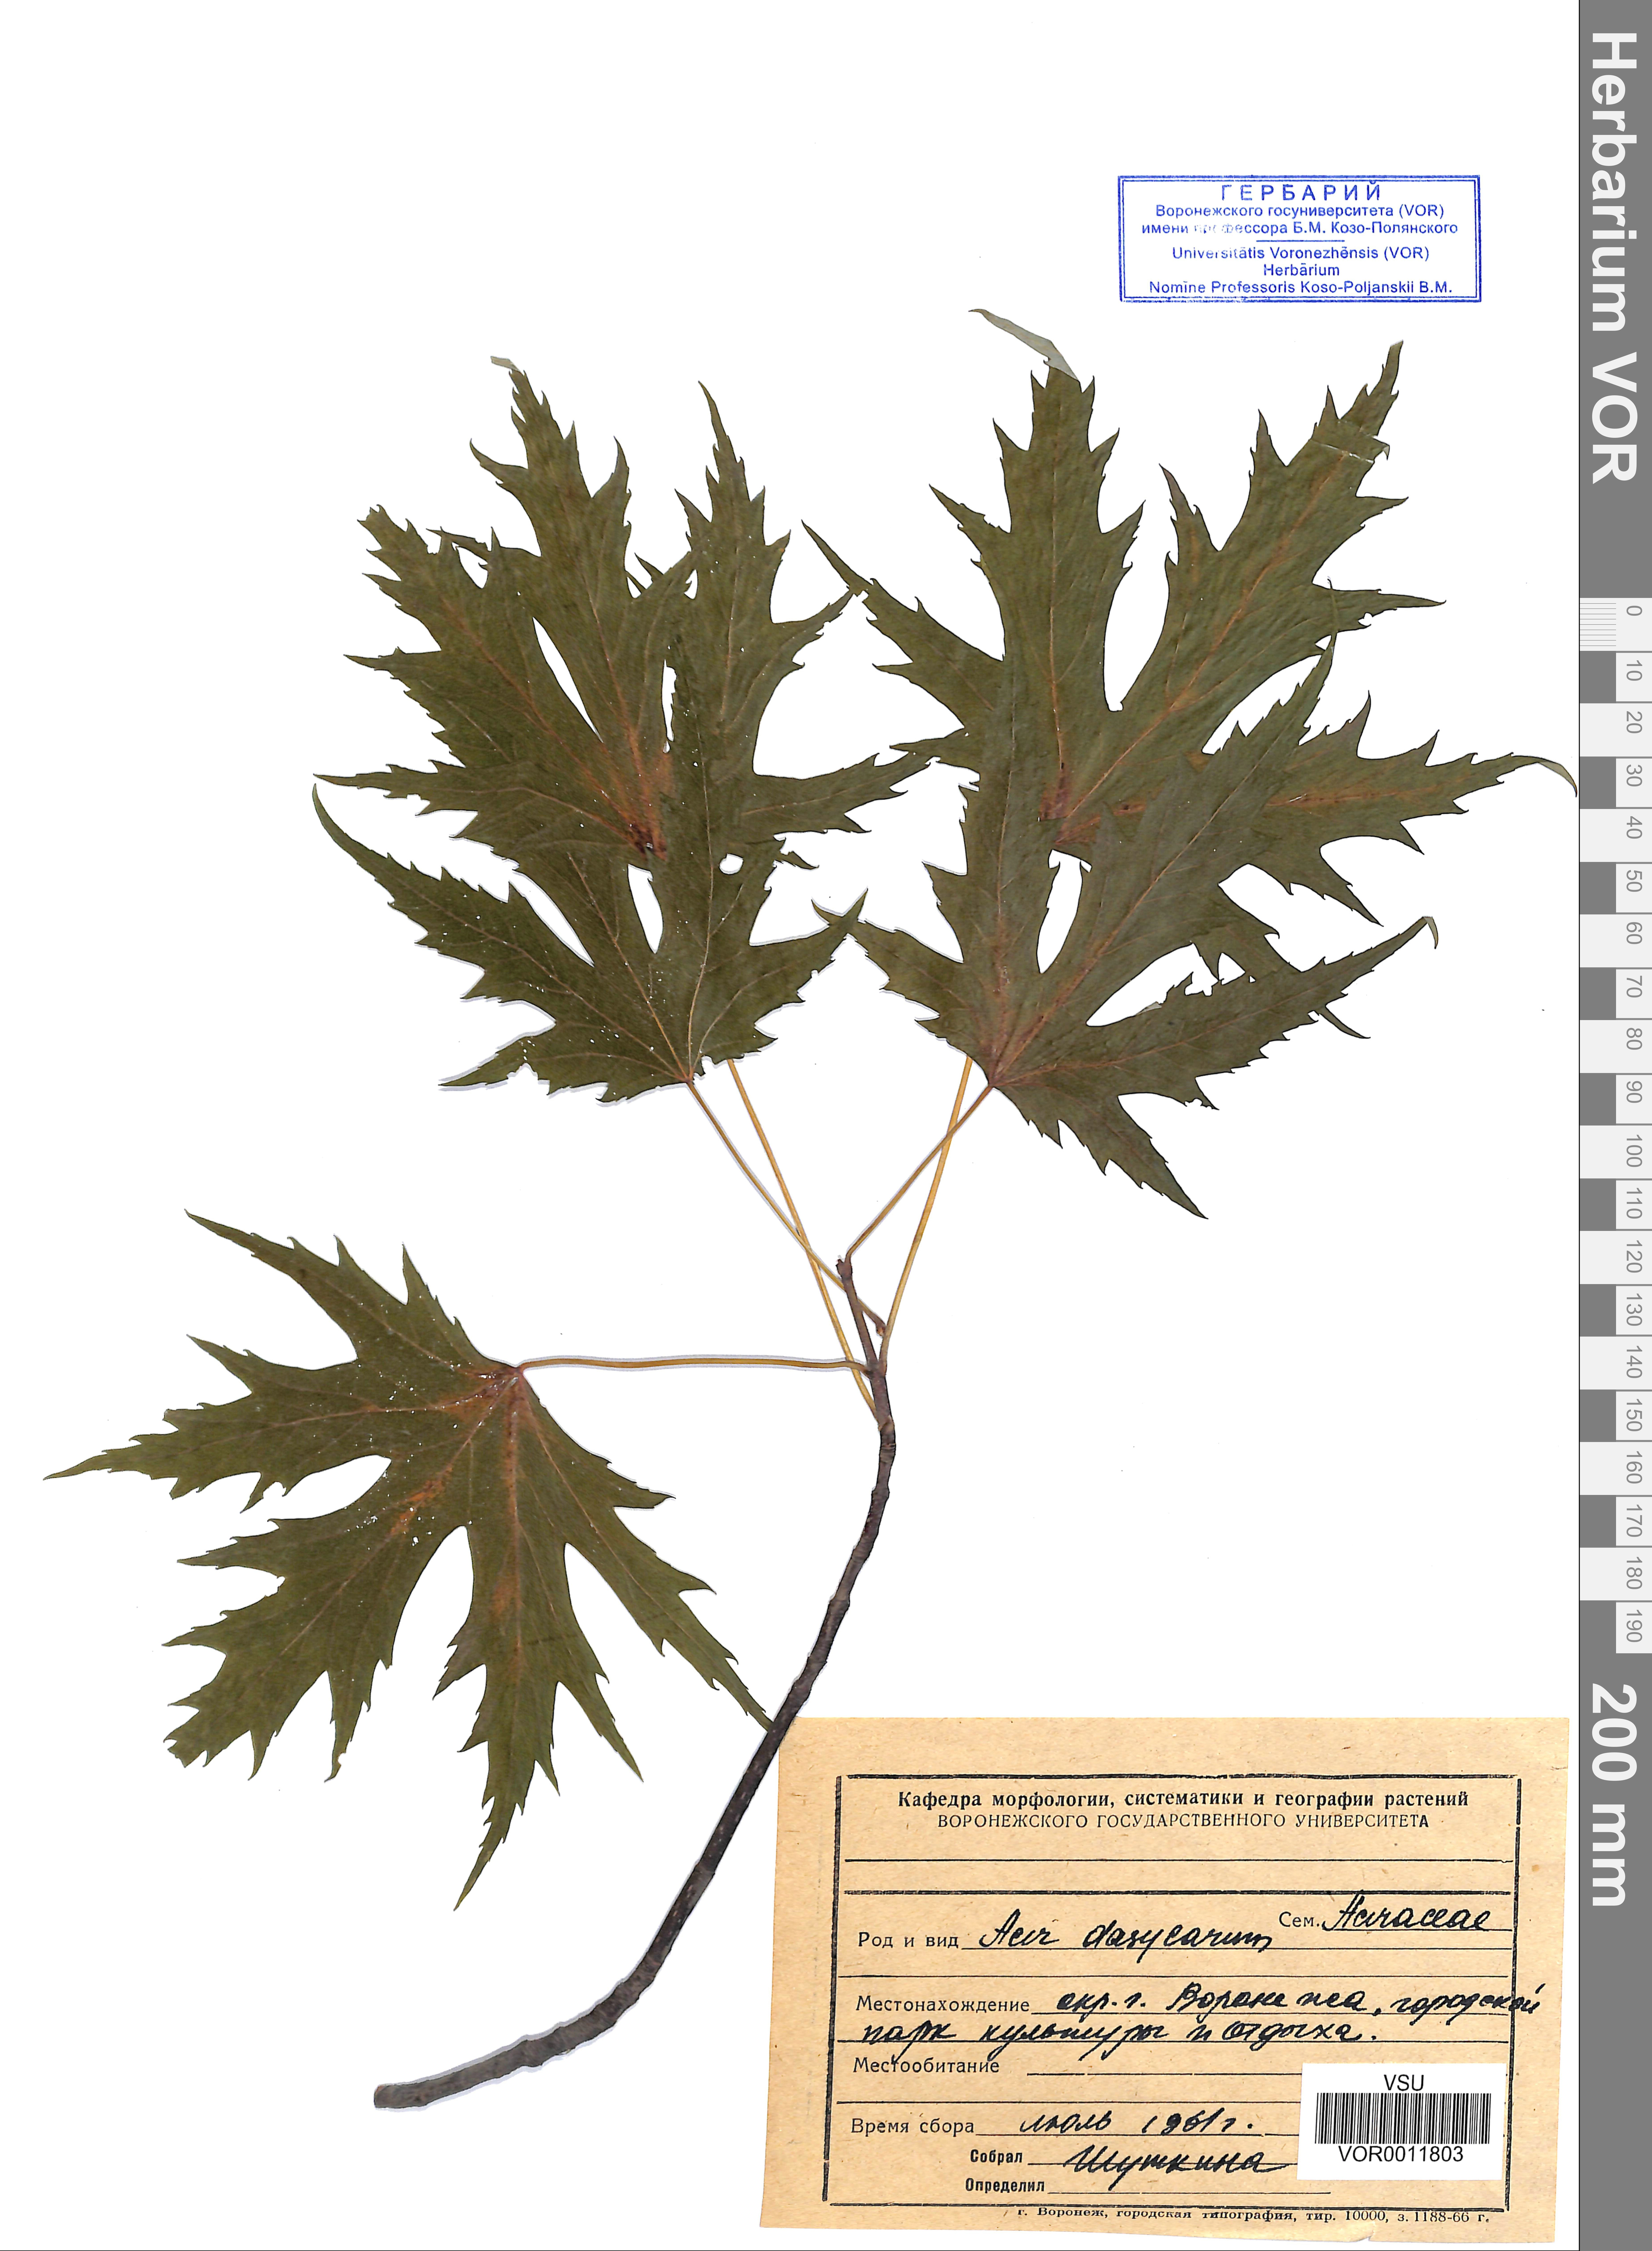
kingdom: Plantae
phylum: Tracheophyta
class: Magnoliopsida
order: Sapindales
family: Sapindaceae
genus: Acer
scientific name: Acer saccharinum
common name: Silver maple
